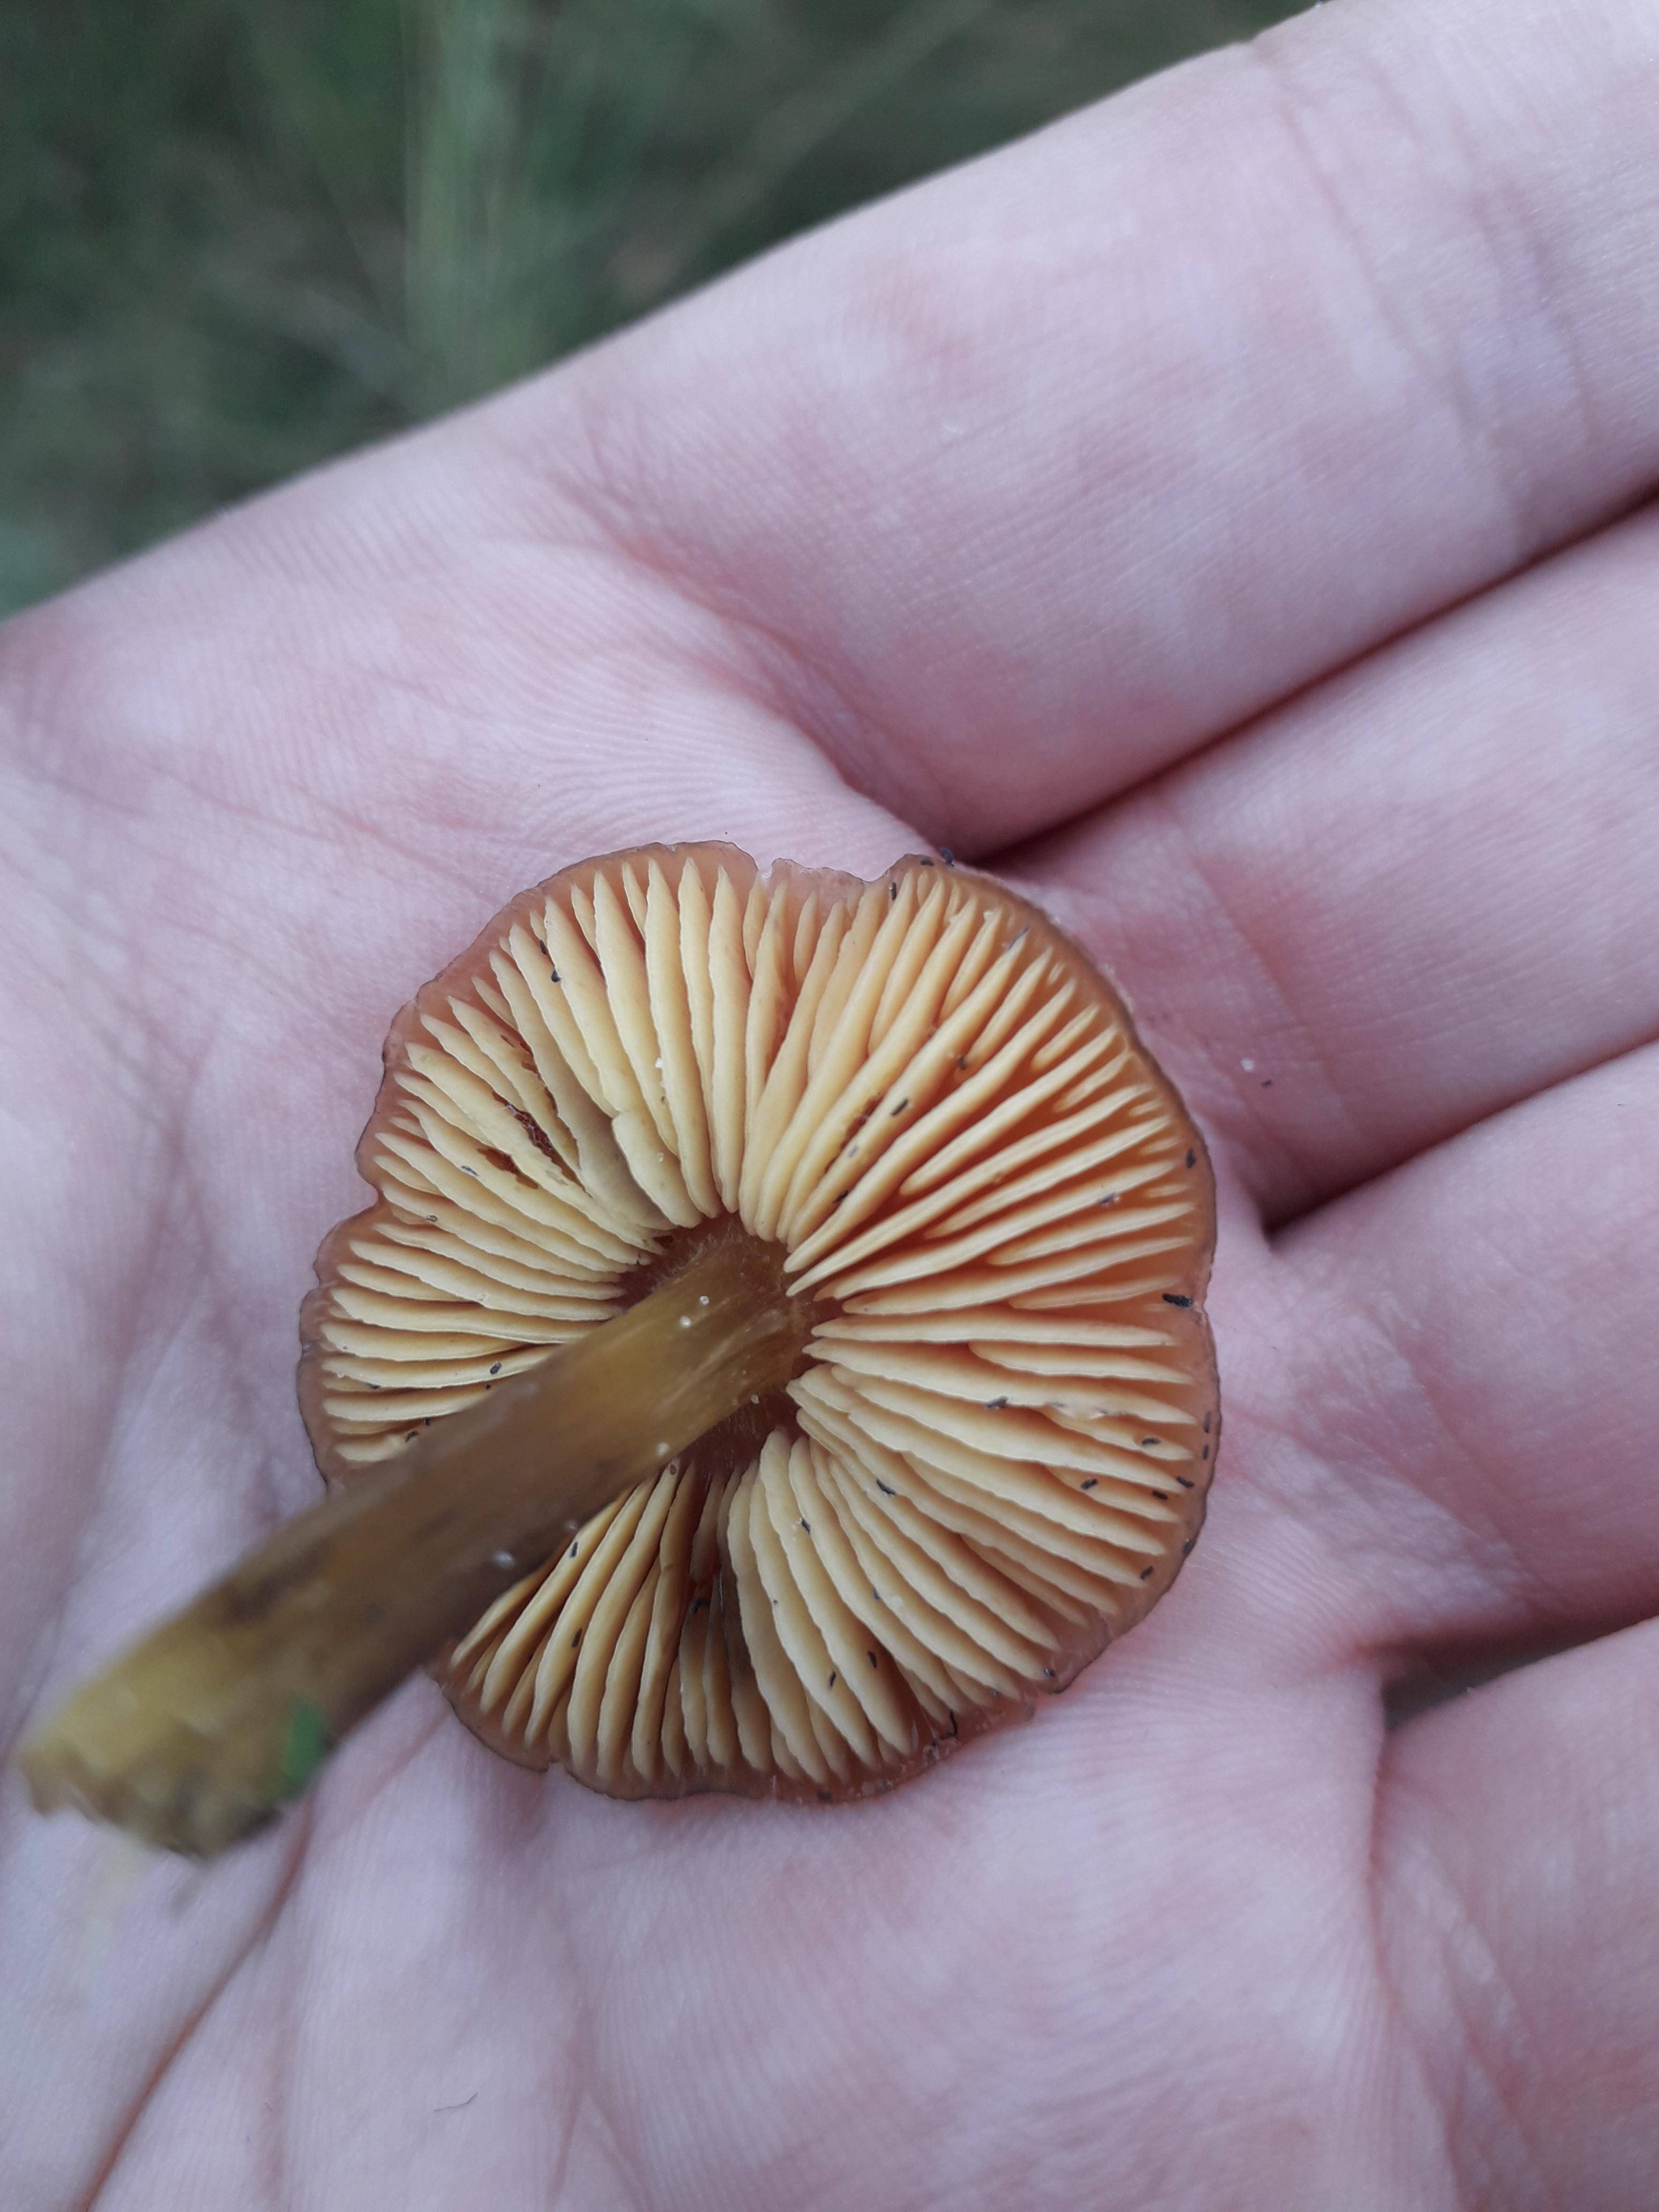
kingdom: Fungi
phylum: Basidiomycota
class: Agaricomycetes
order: Agaricales
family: Hygrophoraceae
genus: Hygrocybe
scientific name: Hygrocybe conica
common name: kegle-vokshat
